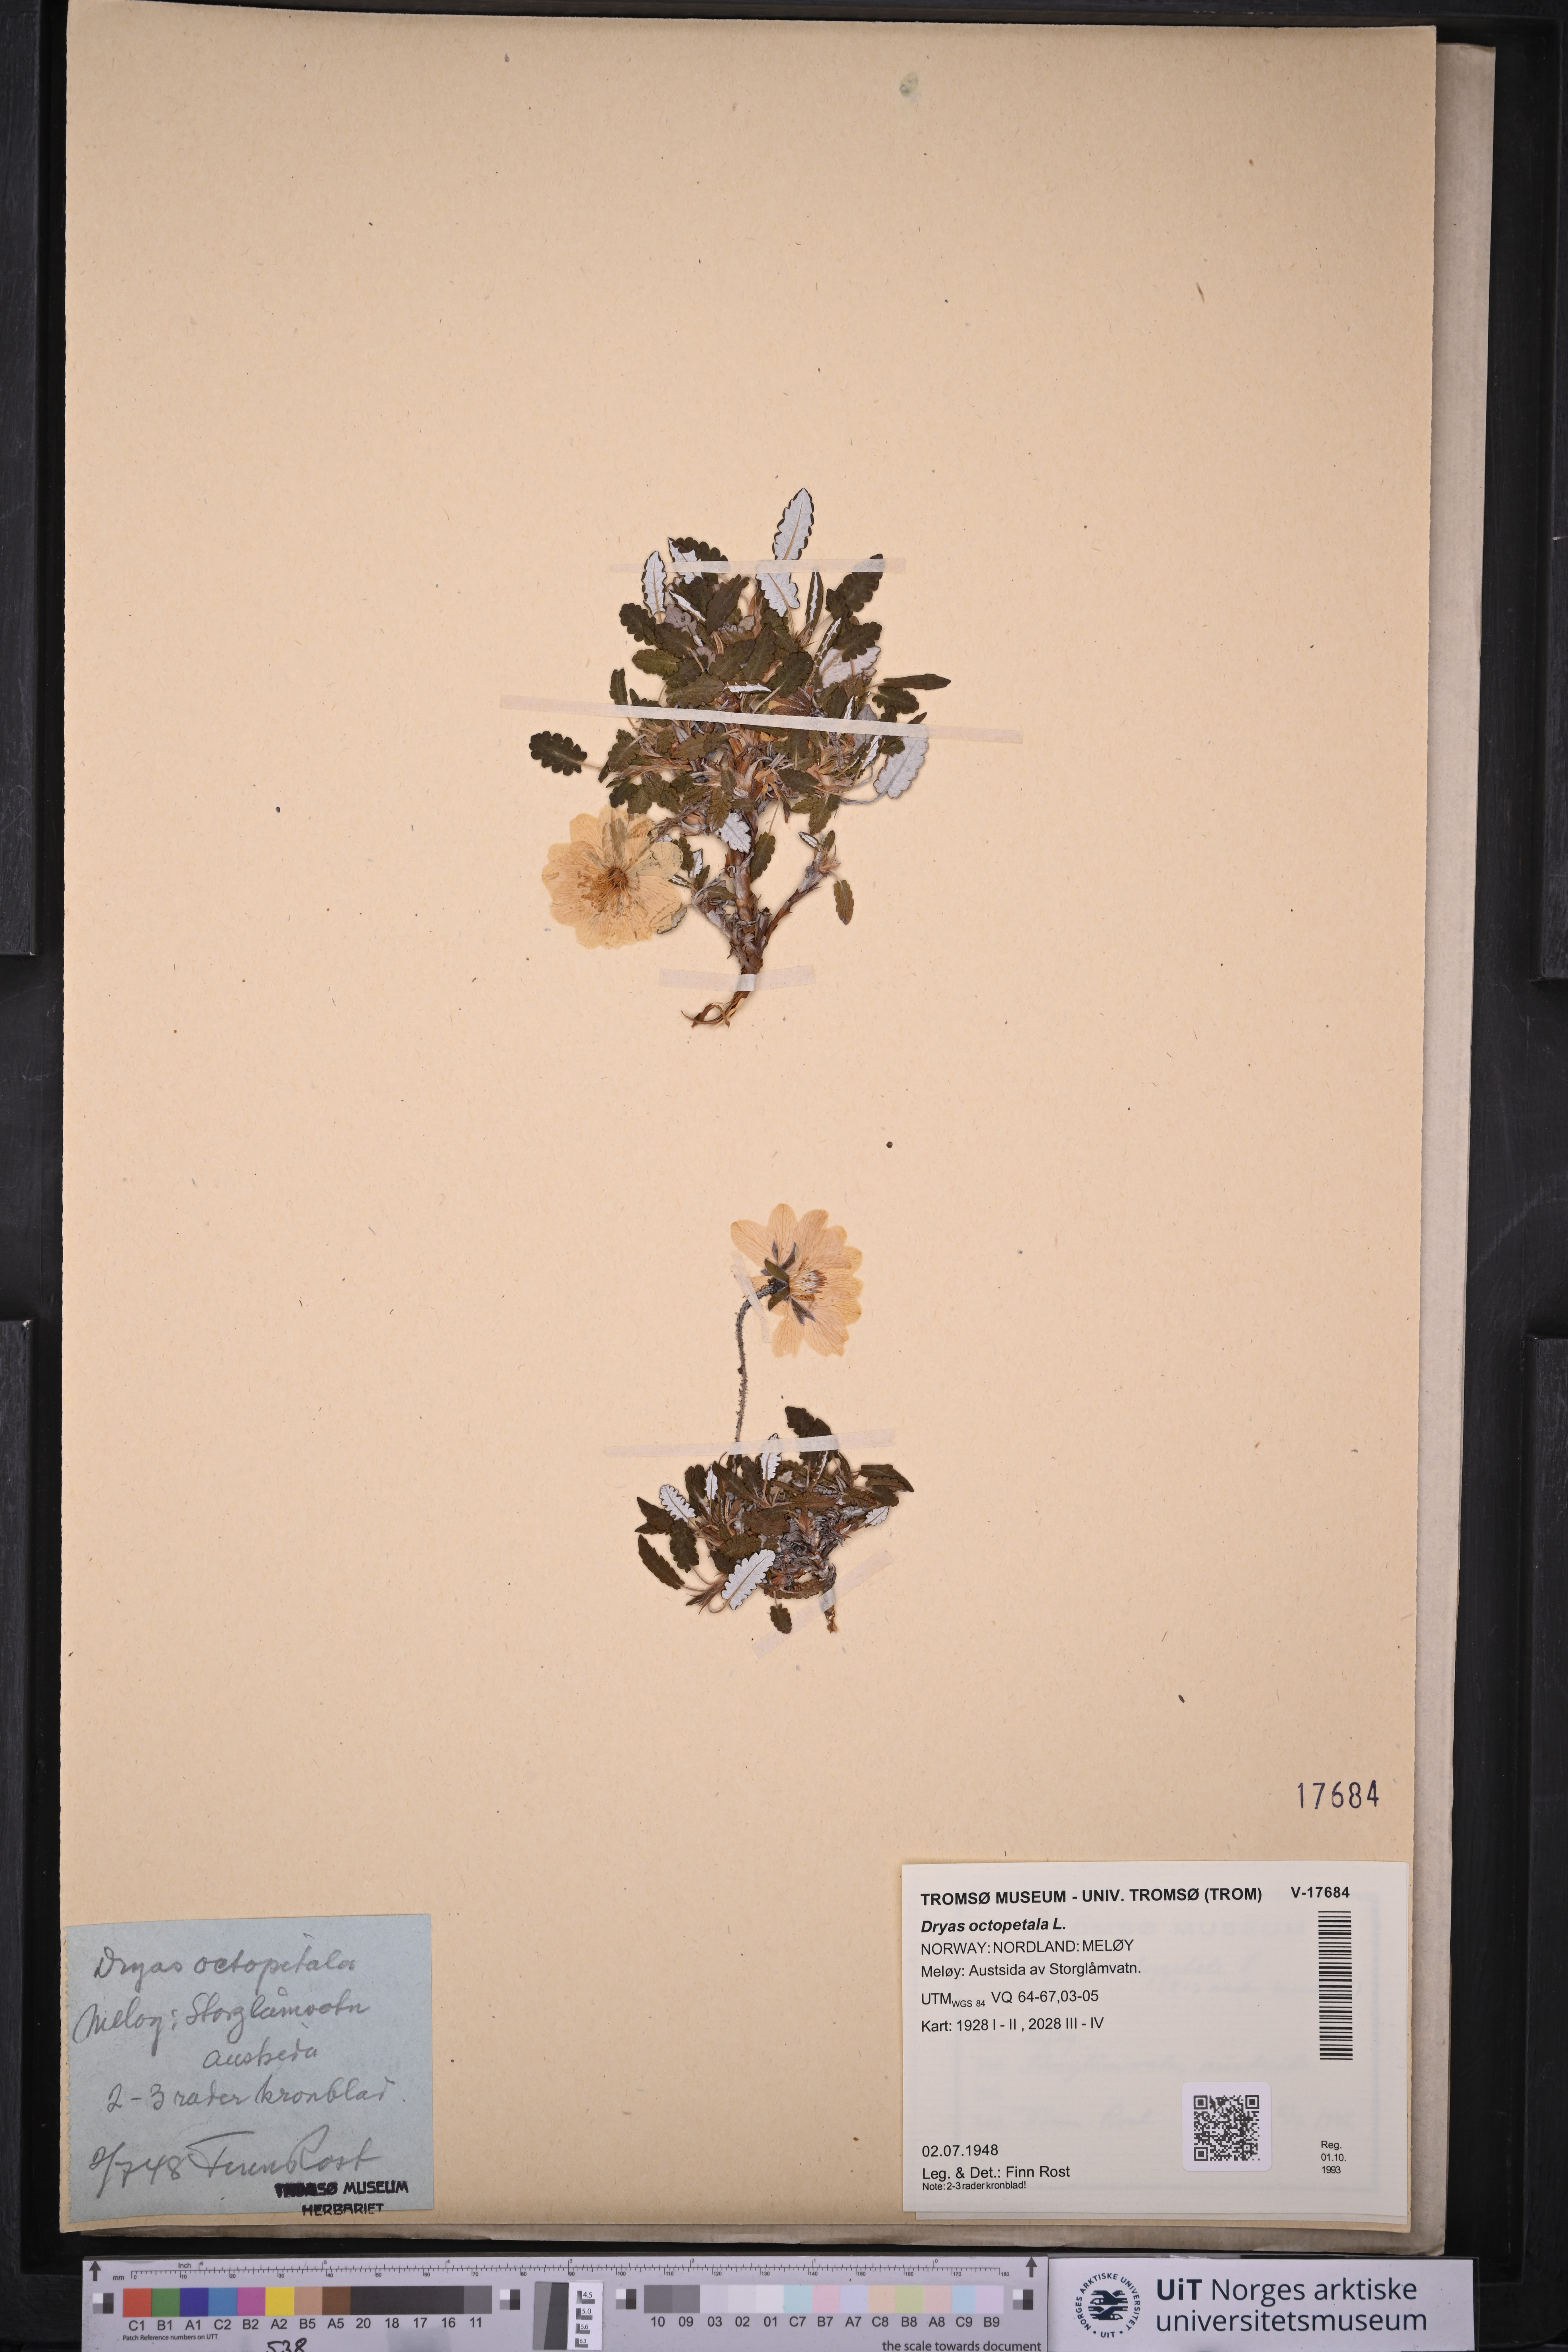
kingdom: Plantae
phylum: Tracheophyta
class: Magnoliopsida
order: Rosales
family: Rosaceae
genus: Dryas
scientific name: Dryas octopetala
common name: Eight-petal mountain-avens
